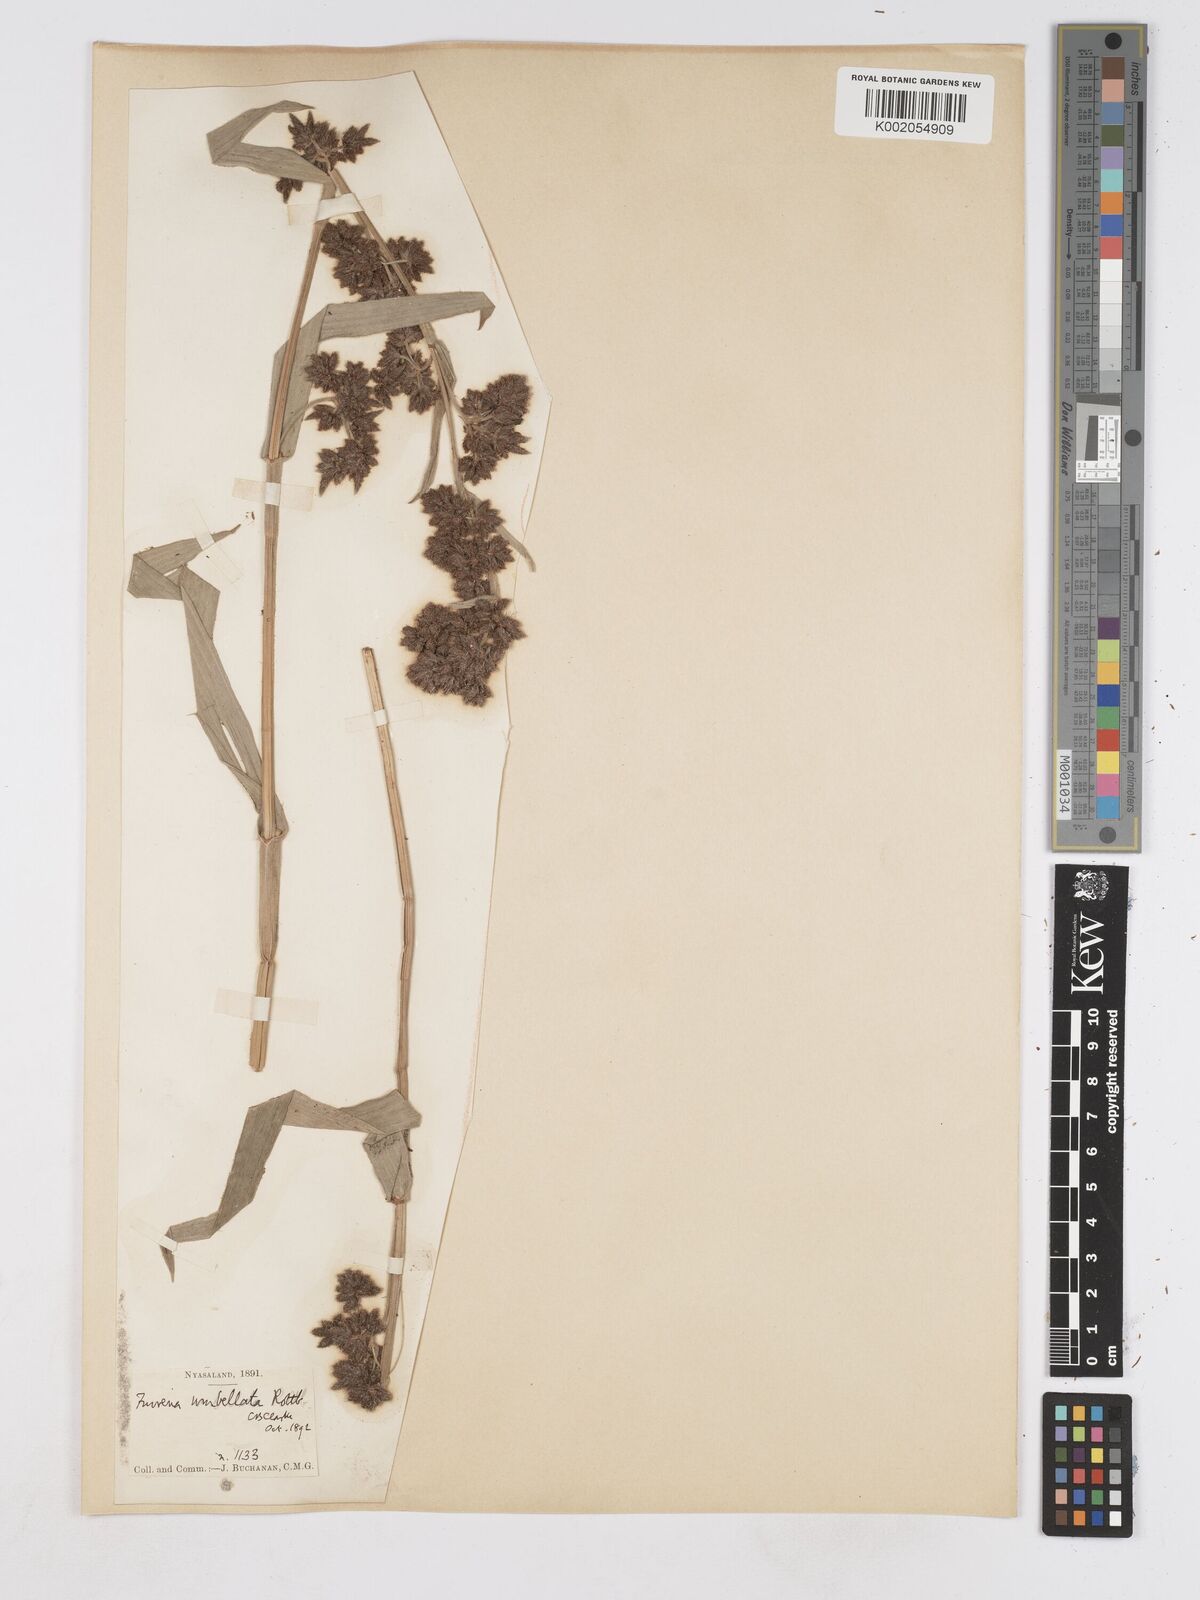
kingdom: Plantae
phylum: Tracheophyta
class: Liliopsida
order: Poales
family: Cyperaceae
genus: Fuirena
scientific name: Fuirena umbellata
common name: Yefen
